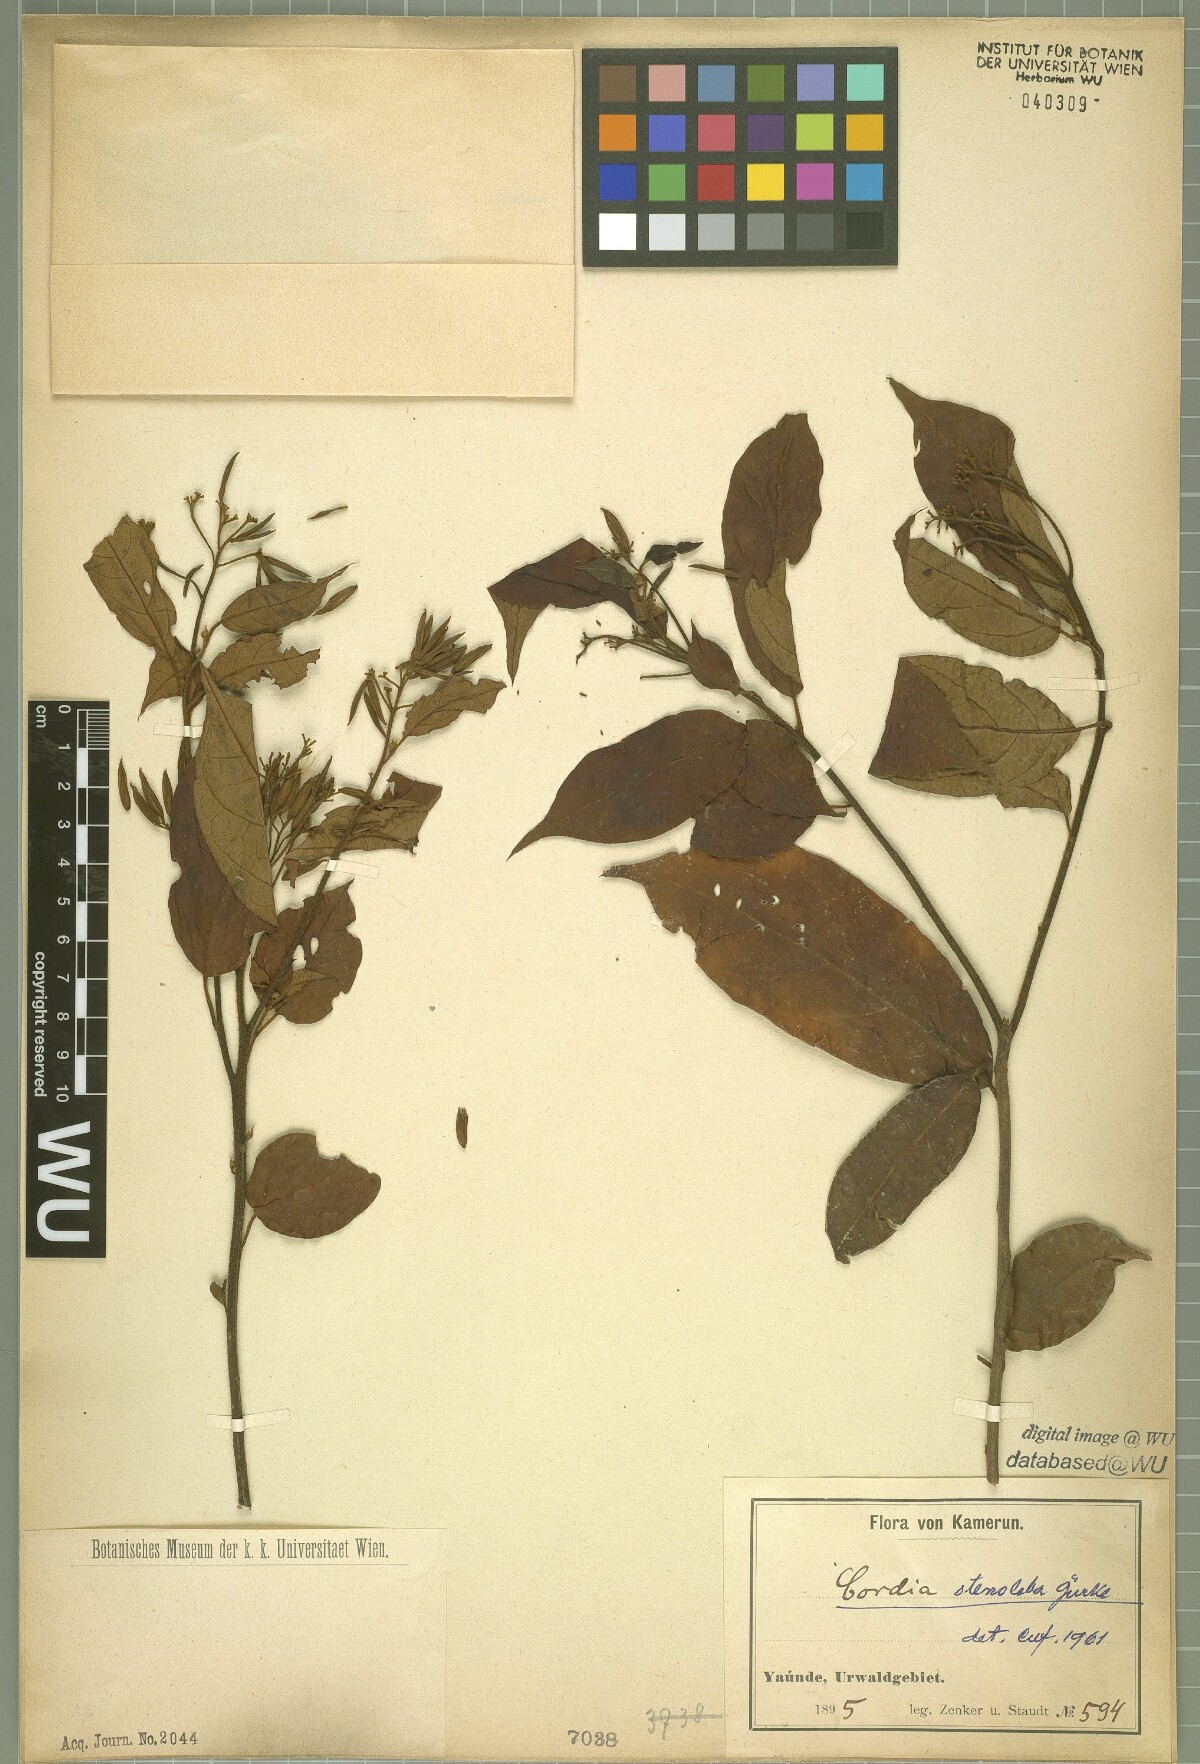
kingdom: Plantae
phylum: Tracheophyta
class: Magnoliopsida
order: Boraginales
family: Cordiaceae
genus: Cordia
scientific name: Cordia stenoloba
